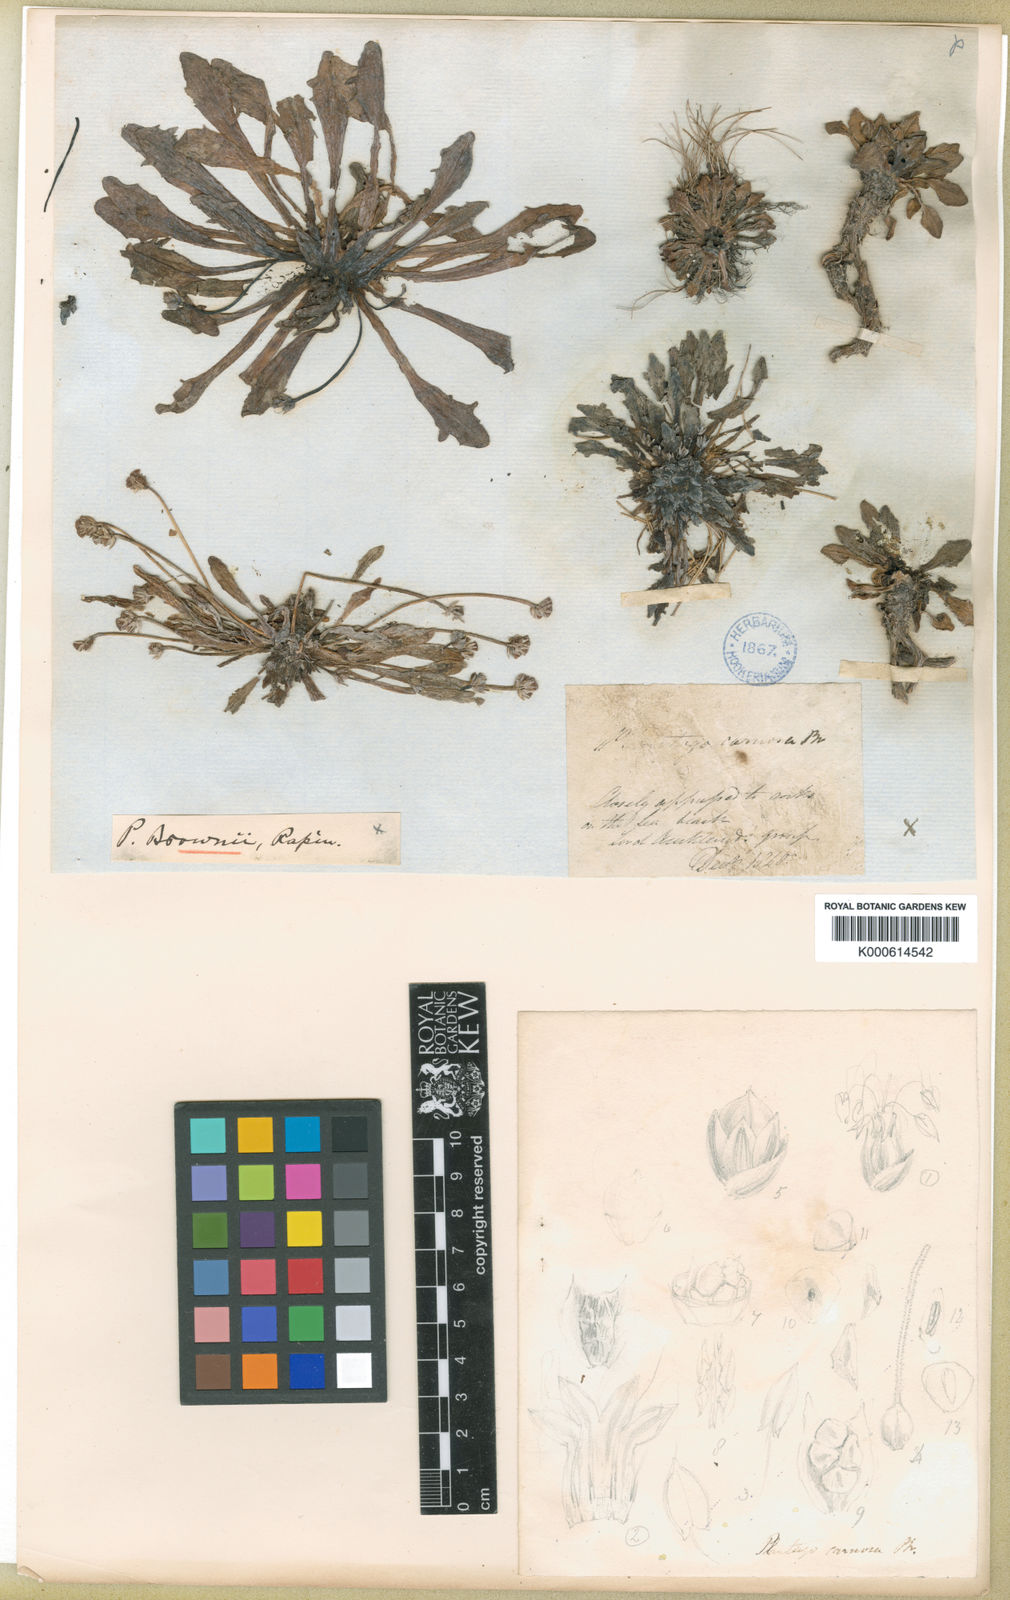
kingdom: Plantae
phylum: Tracheophyta
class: Magnoliopsida
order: Lamiales
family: Plantaginaceae
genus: Plantago
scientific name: Plantago brownii
